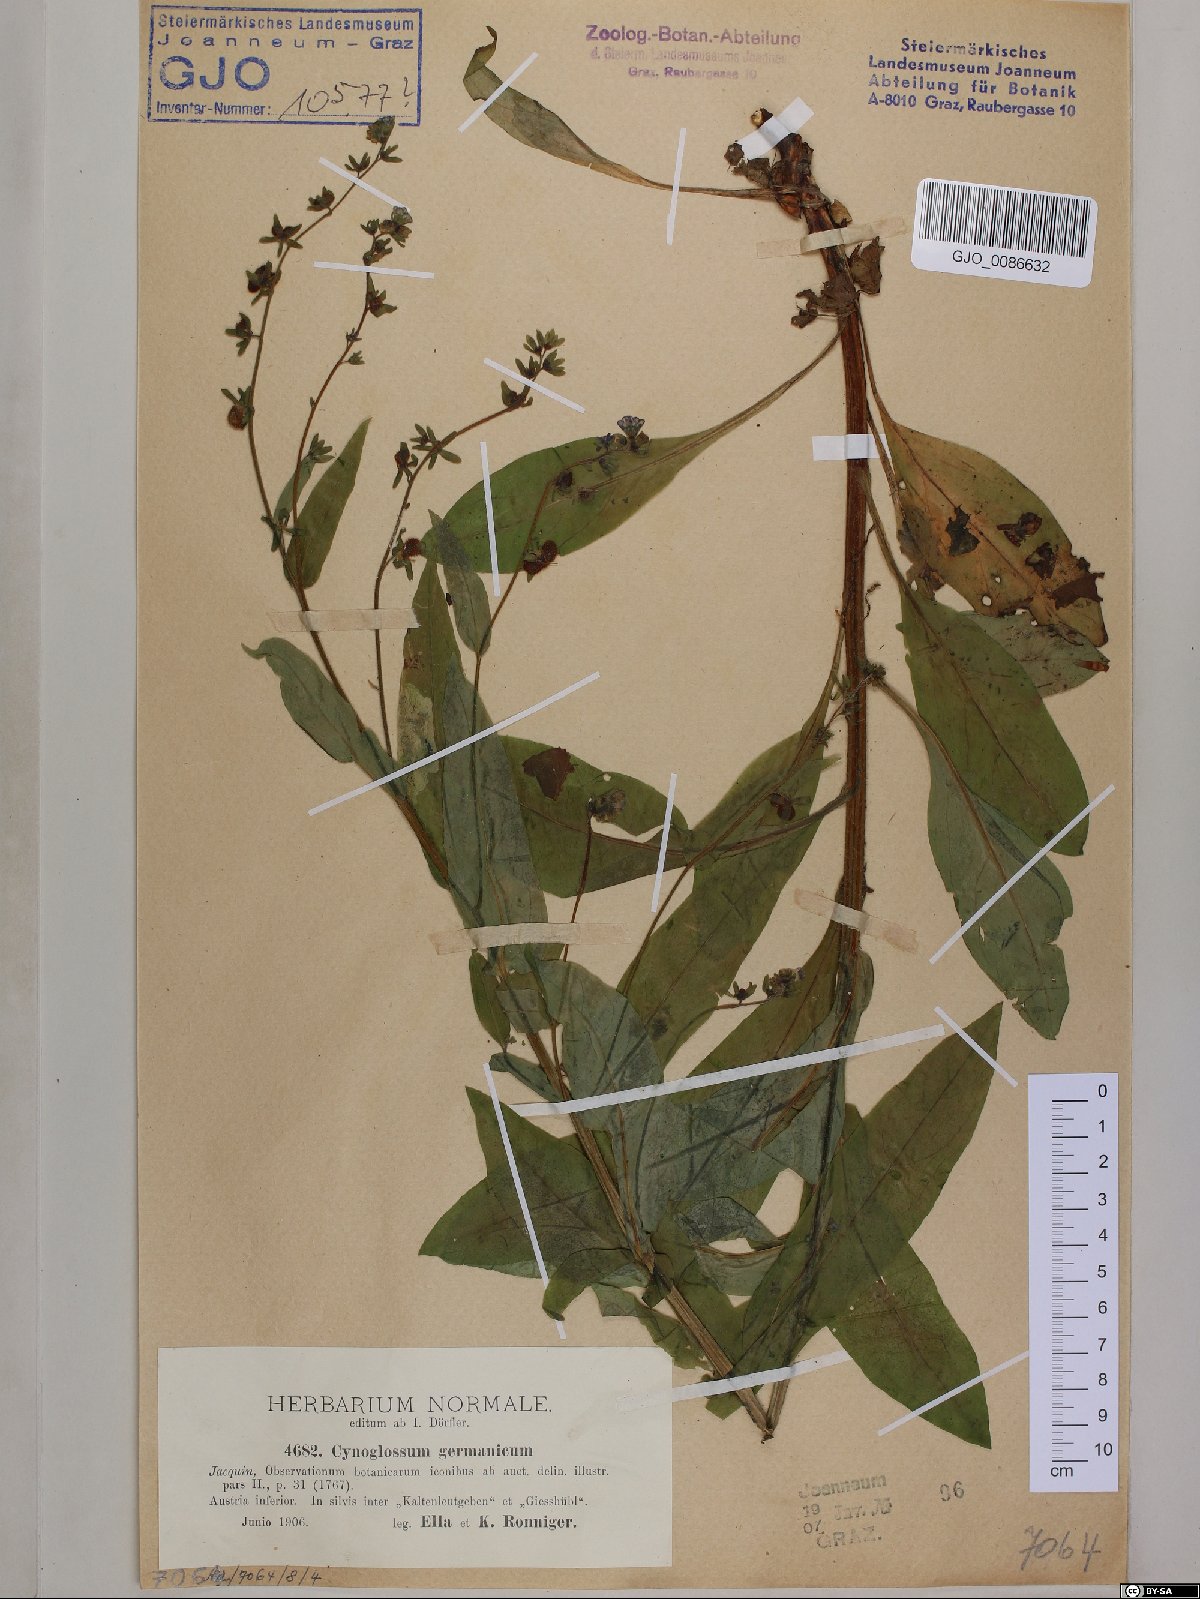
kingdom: Plantae
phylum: Tracheophyta
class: Magnoliopsida
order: Boraginales
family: Boraginaceae
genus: Cynoglossum
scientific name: Cynoglossum germanicum
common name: Green hound's-tongue
